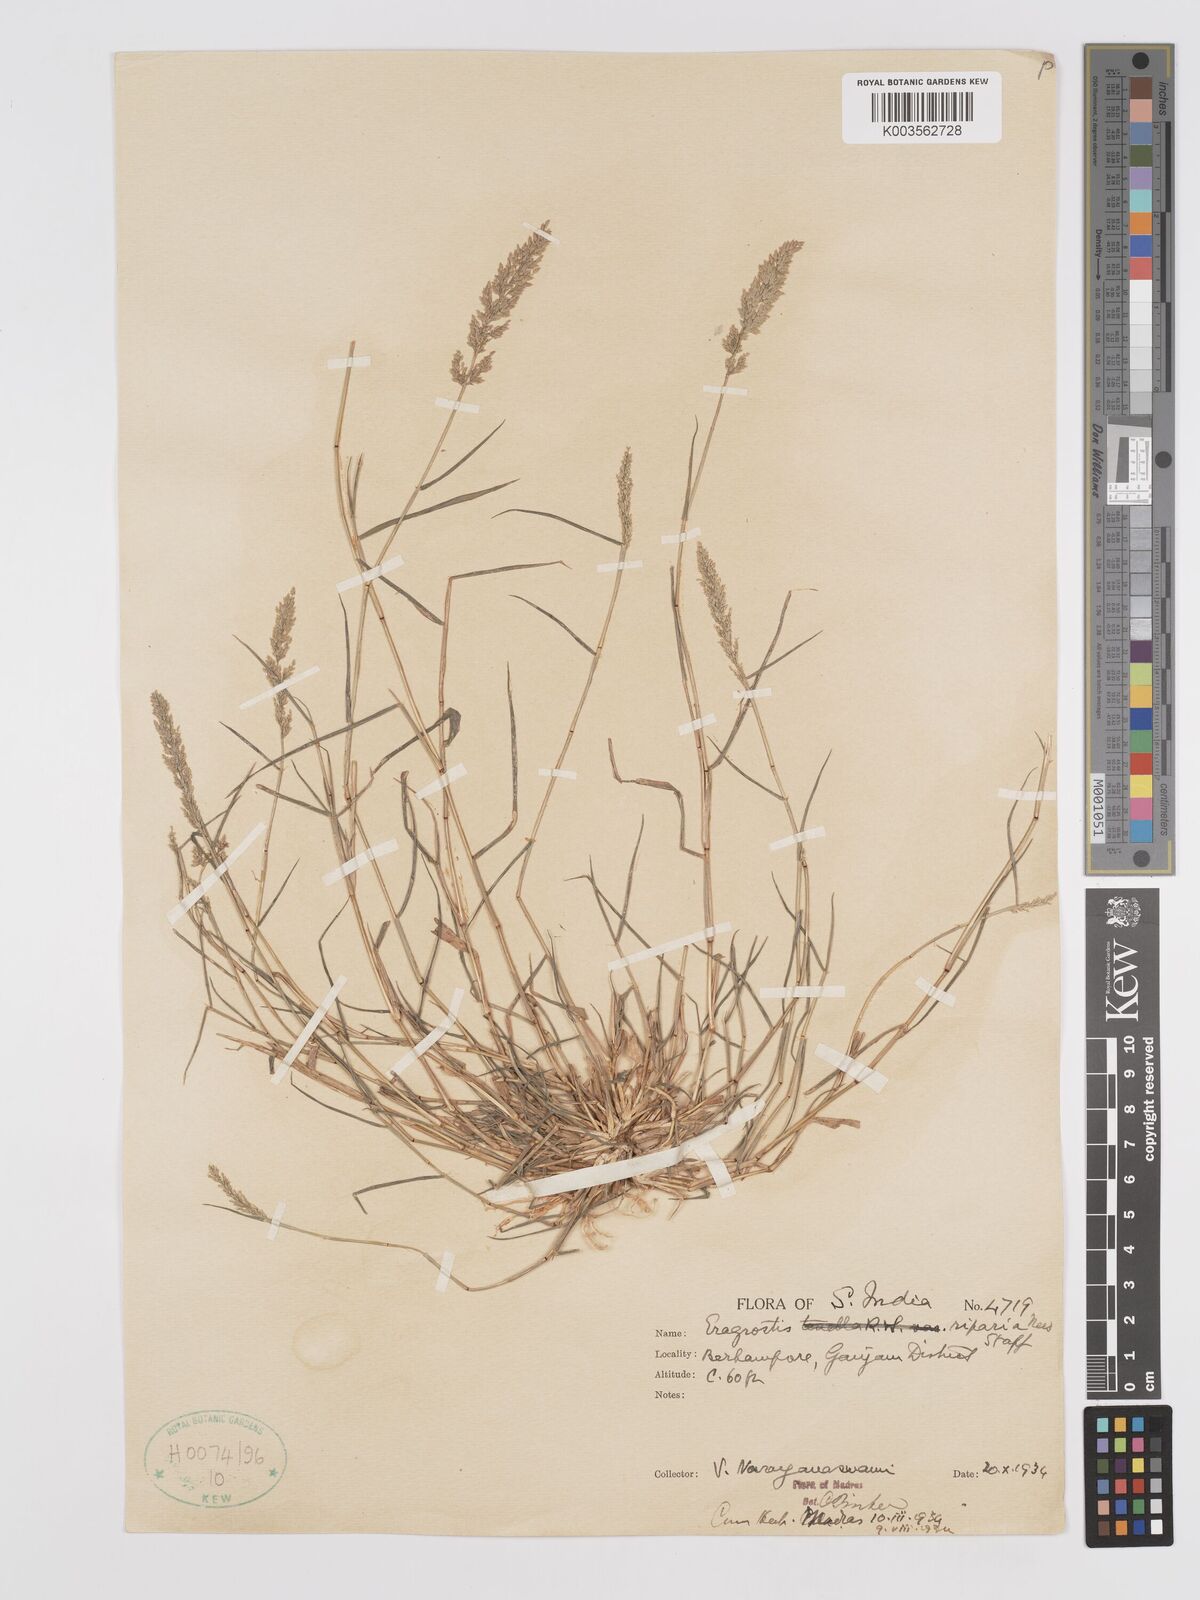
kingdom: Plantae
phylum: Tracheophyta
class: Liliopsida
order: Poales
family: Poaceae
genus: Eragrostis
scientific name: Eragrostis riparia
